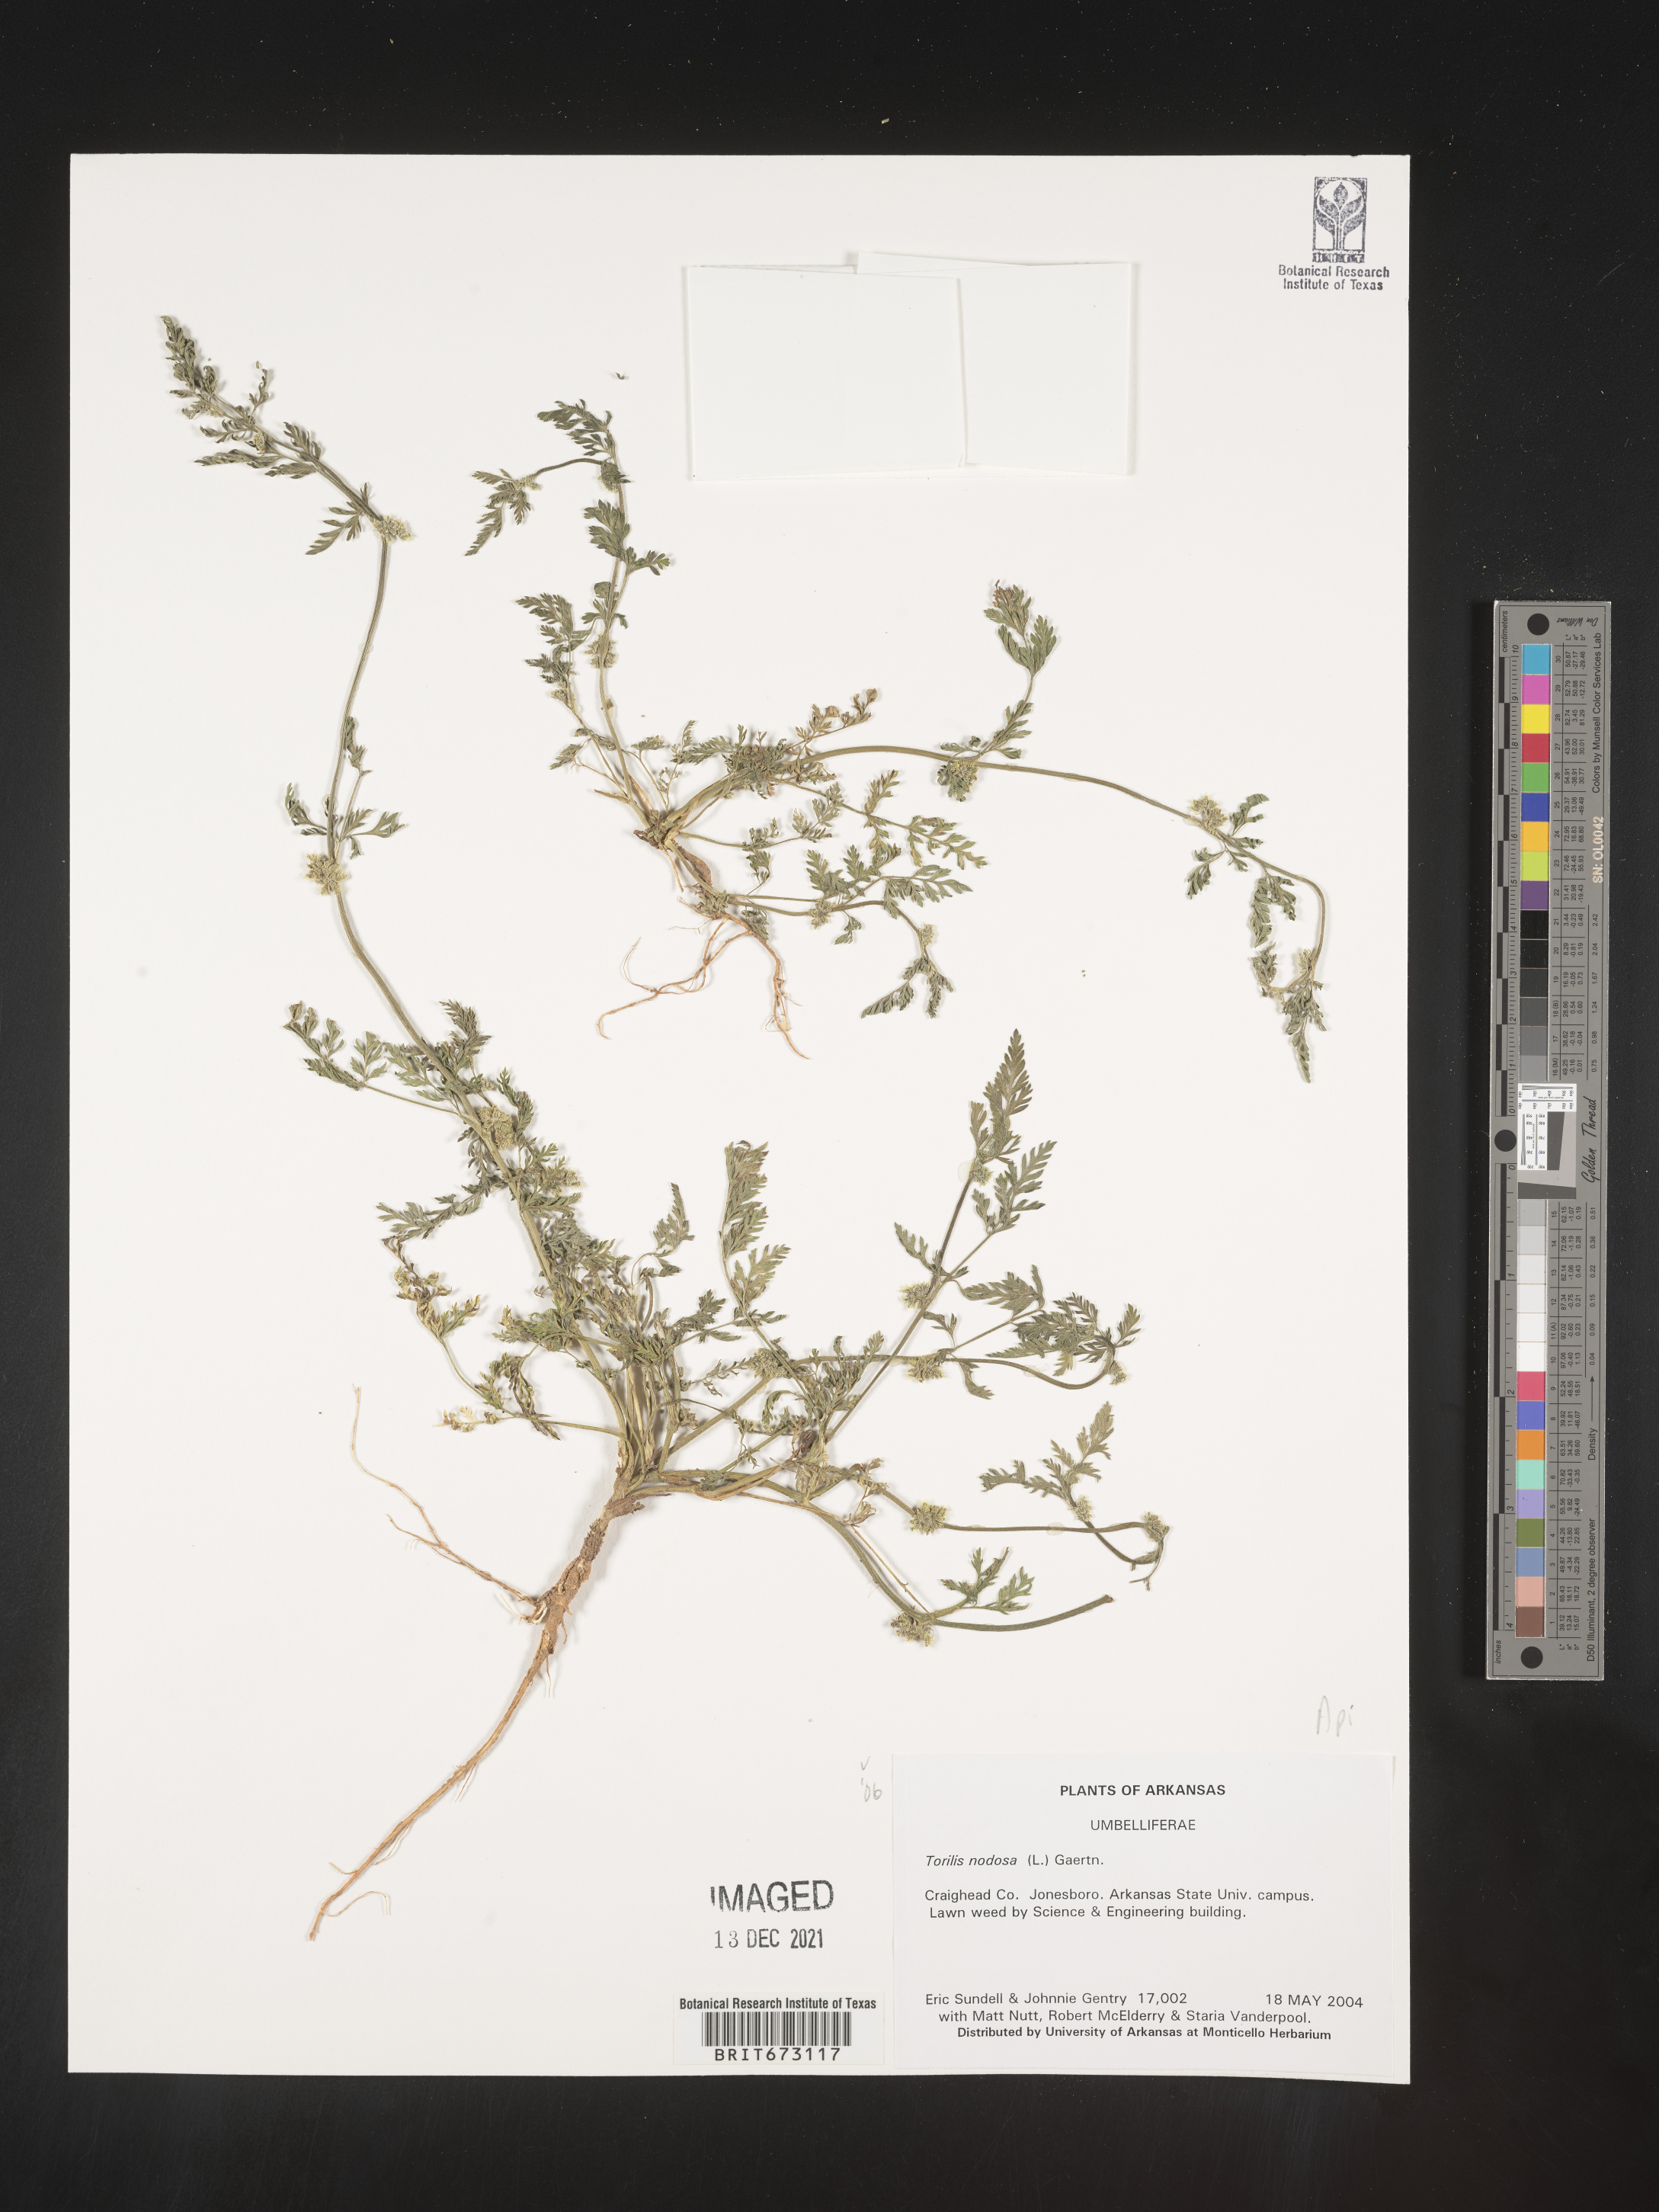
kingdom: Plantae
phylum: Tracheophyta
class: Magnoliopsida
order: Apiales
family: Apiaceae
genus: Torilis
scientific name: Torilis nodosa
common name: Knotted hedge-parsley
